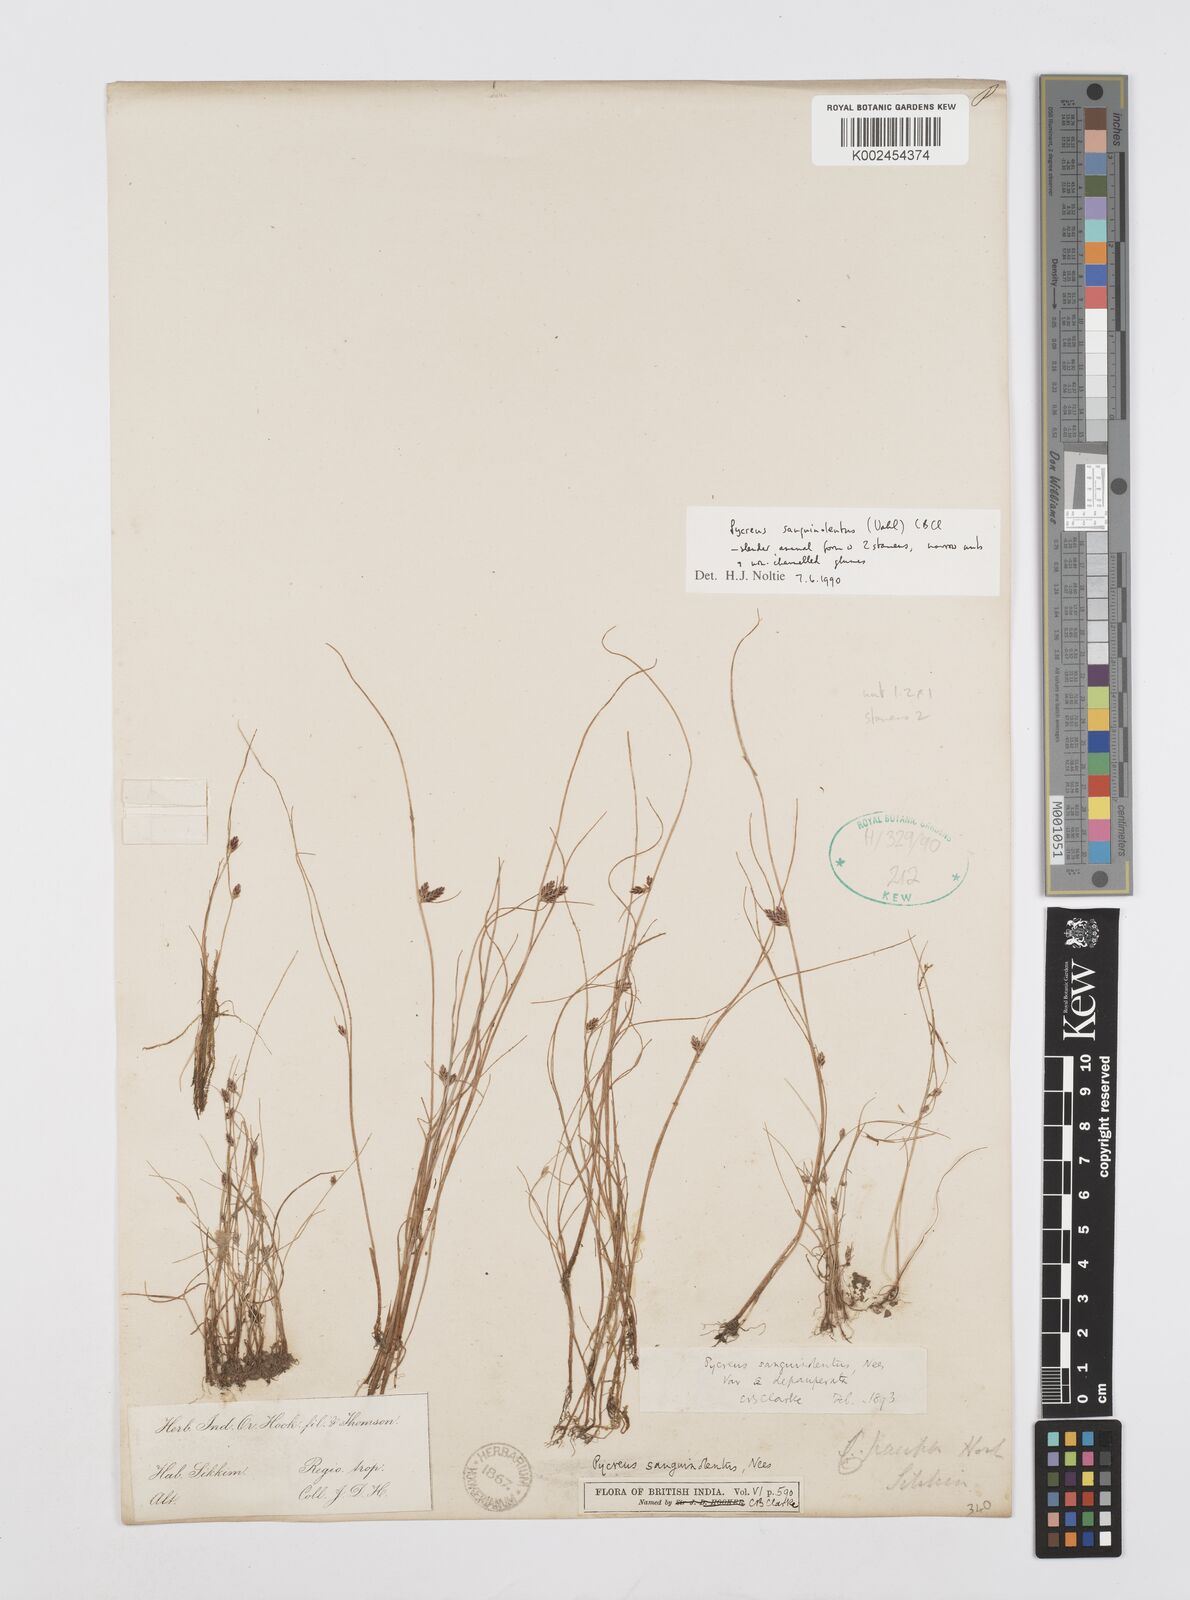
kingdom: Plantae
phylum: Tracheophyta
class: Liliopsida
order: Poales
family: Cyperaceae
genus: Cyperus
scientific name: Cyperus sanguinolentus
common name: Purpleglume flatsedge
